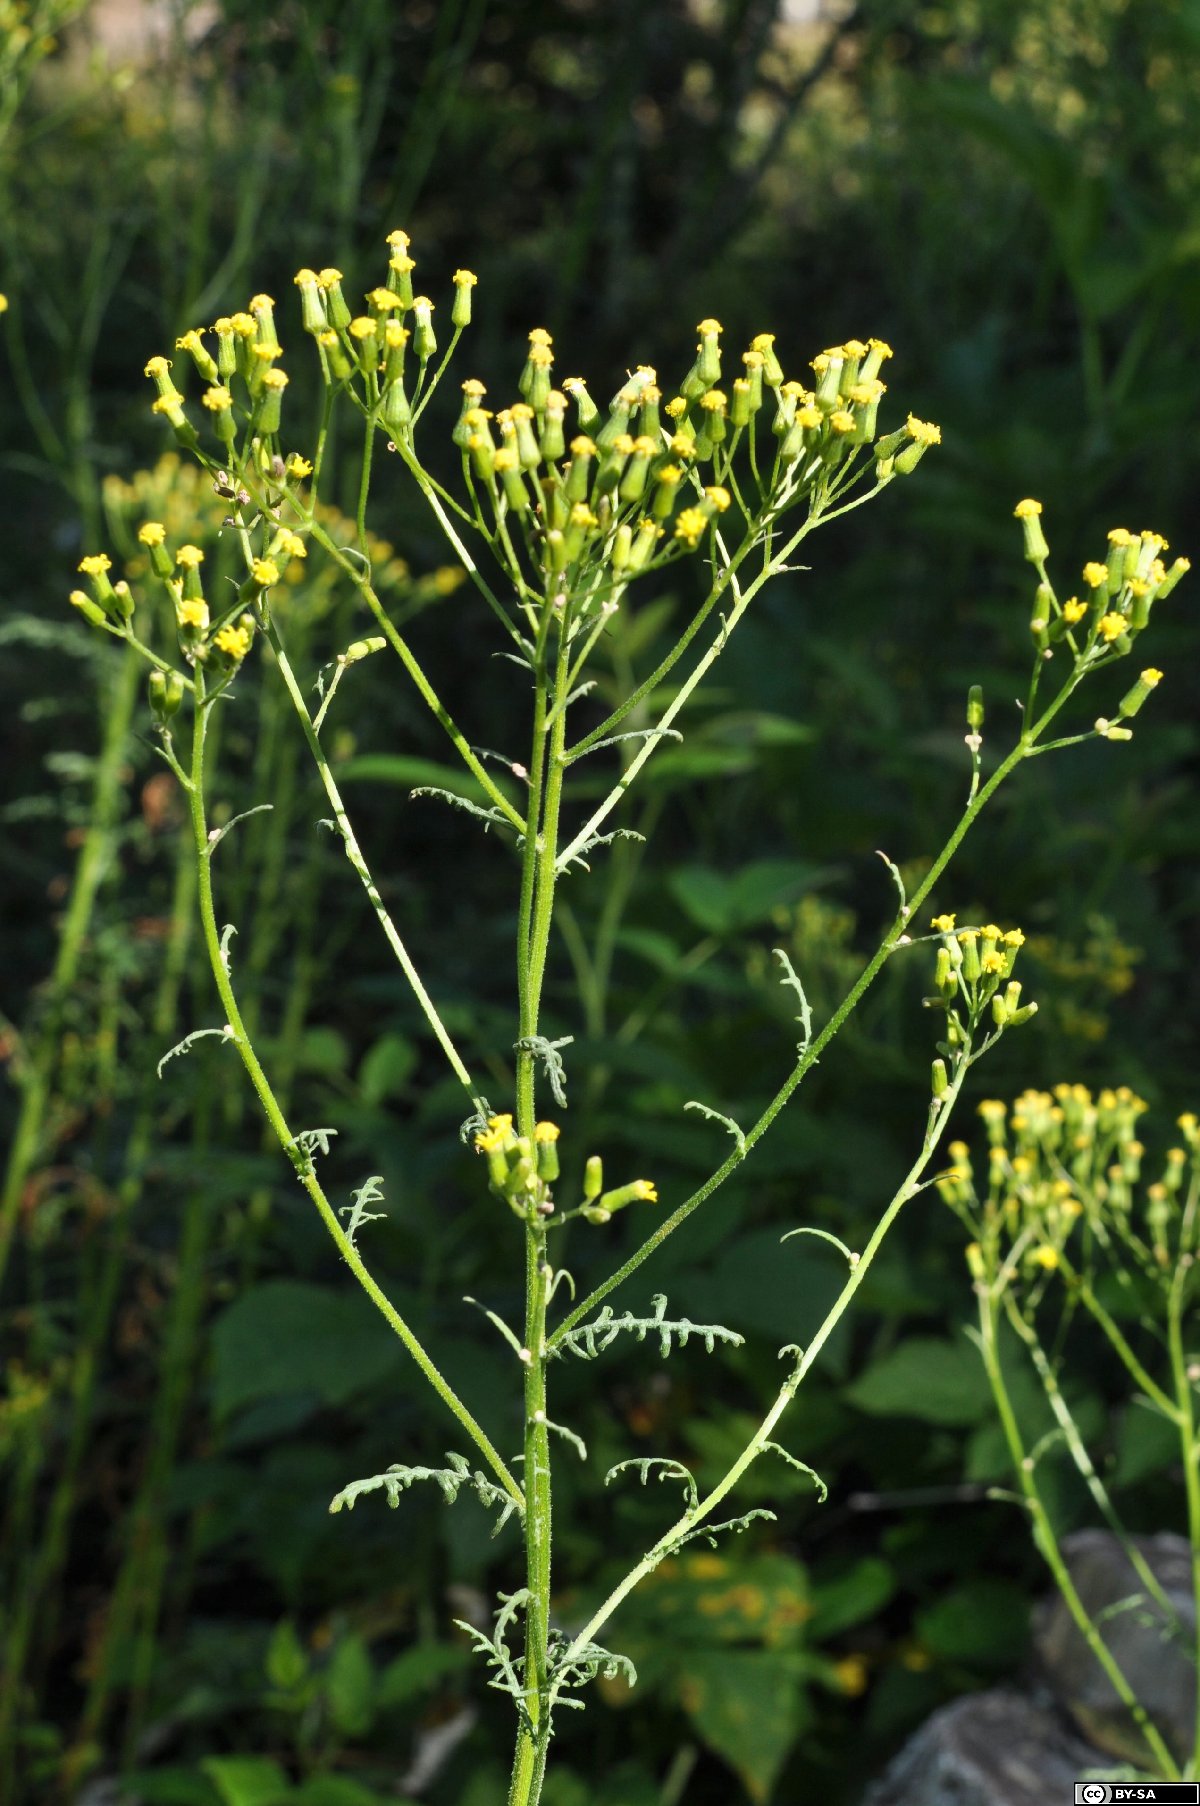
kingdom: Plantae
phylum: Tracheophyta
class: Magnoliopsida
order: Asterales
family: Asteraceae
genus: Senecio
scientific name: Senecio sylvaticus
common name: Woodland ragwort
